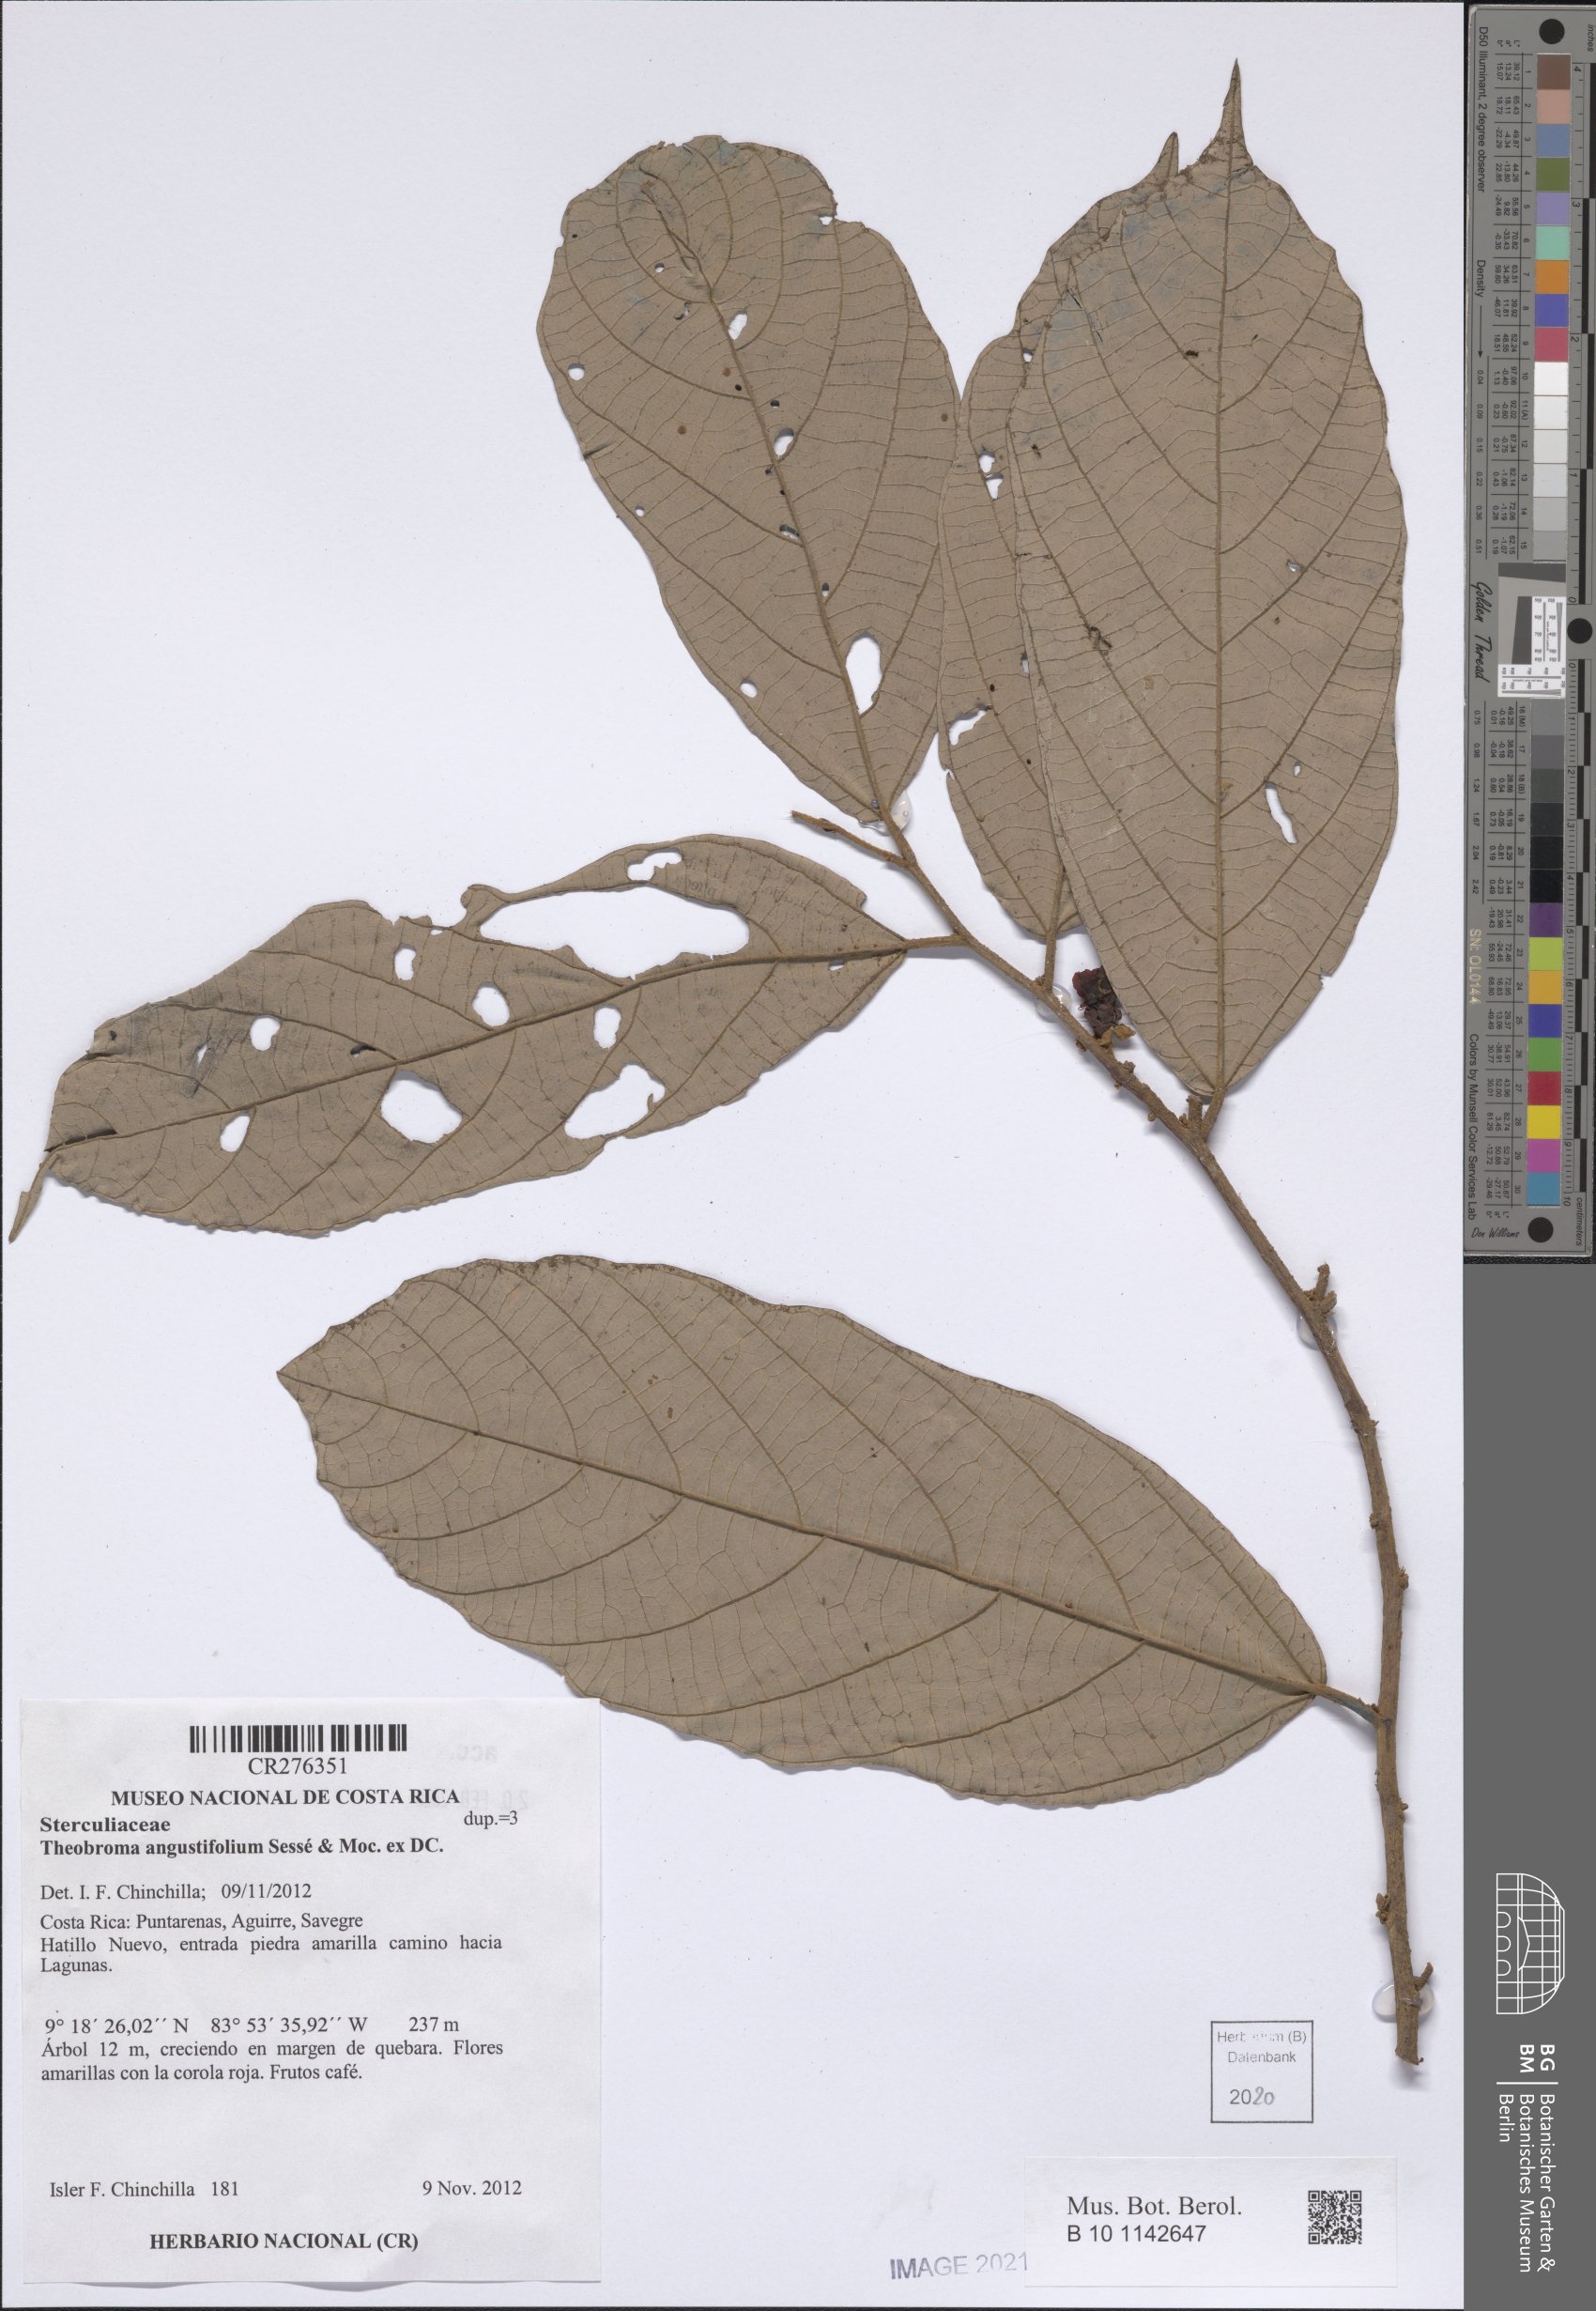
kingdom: Plantae
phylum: Tracheophyta
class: Magnoliopsida
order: Malvales
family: Malvaceae
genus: Theobroma
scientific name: Theobroma angustifolium
